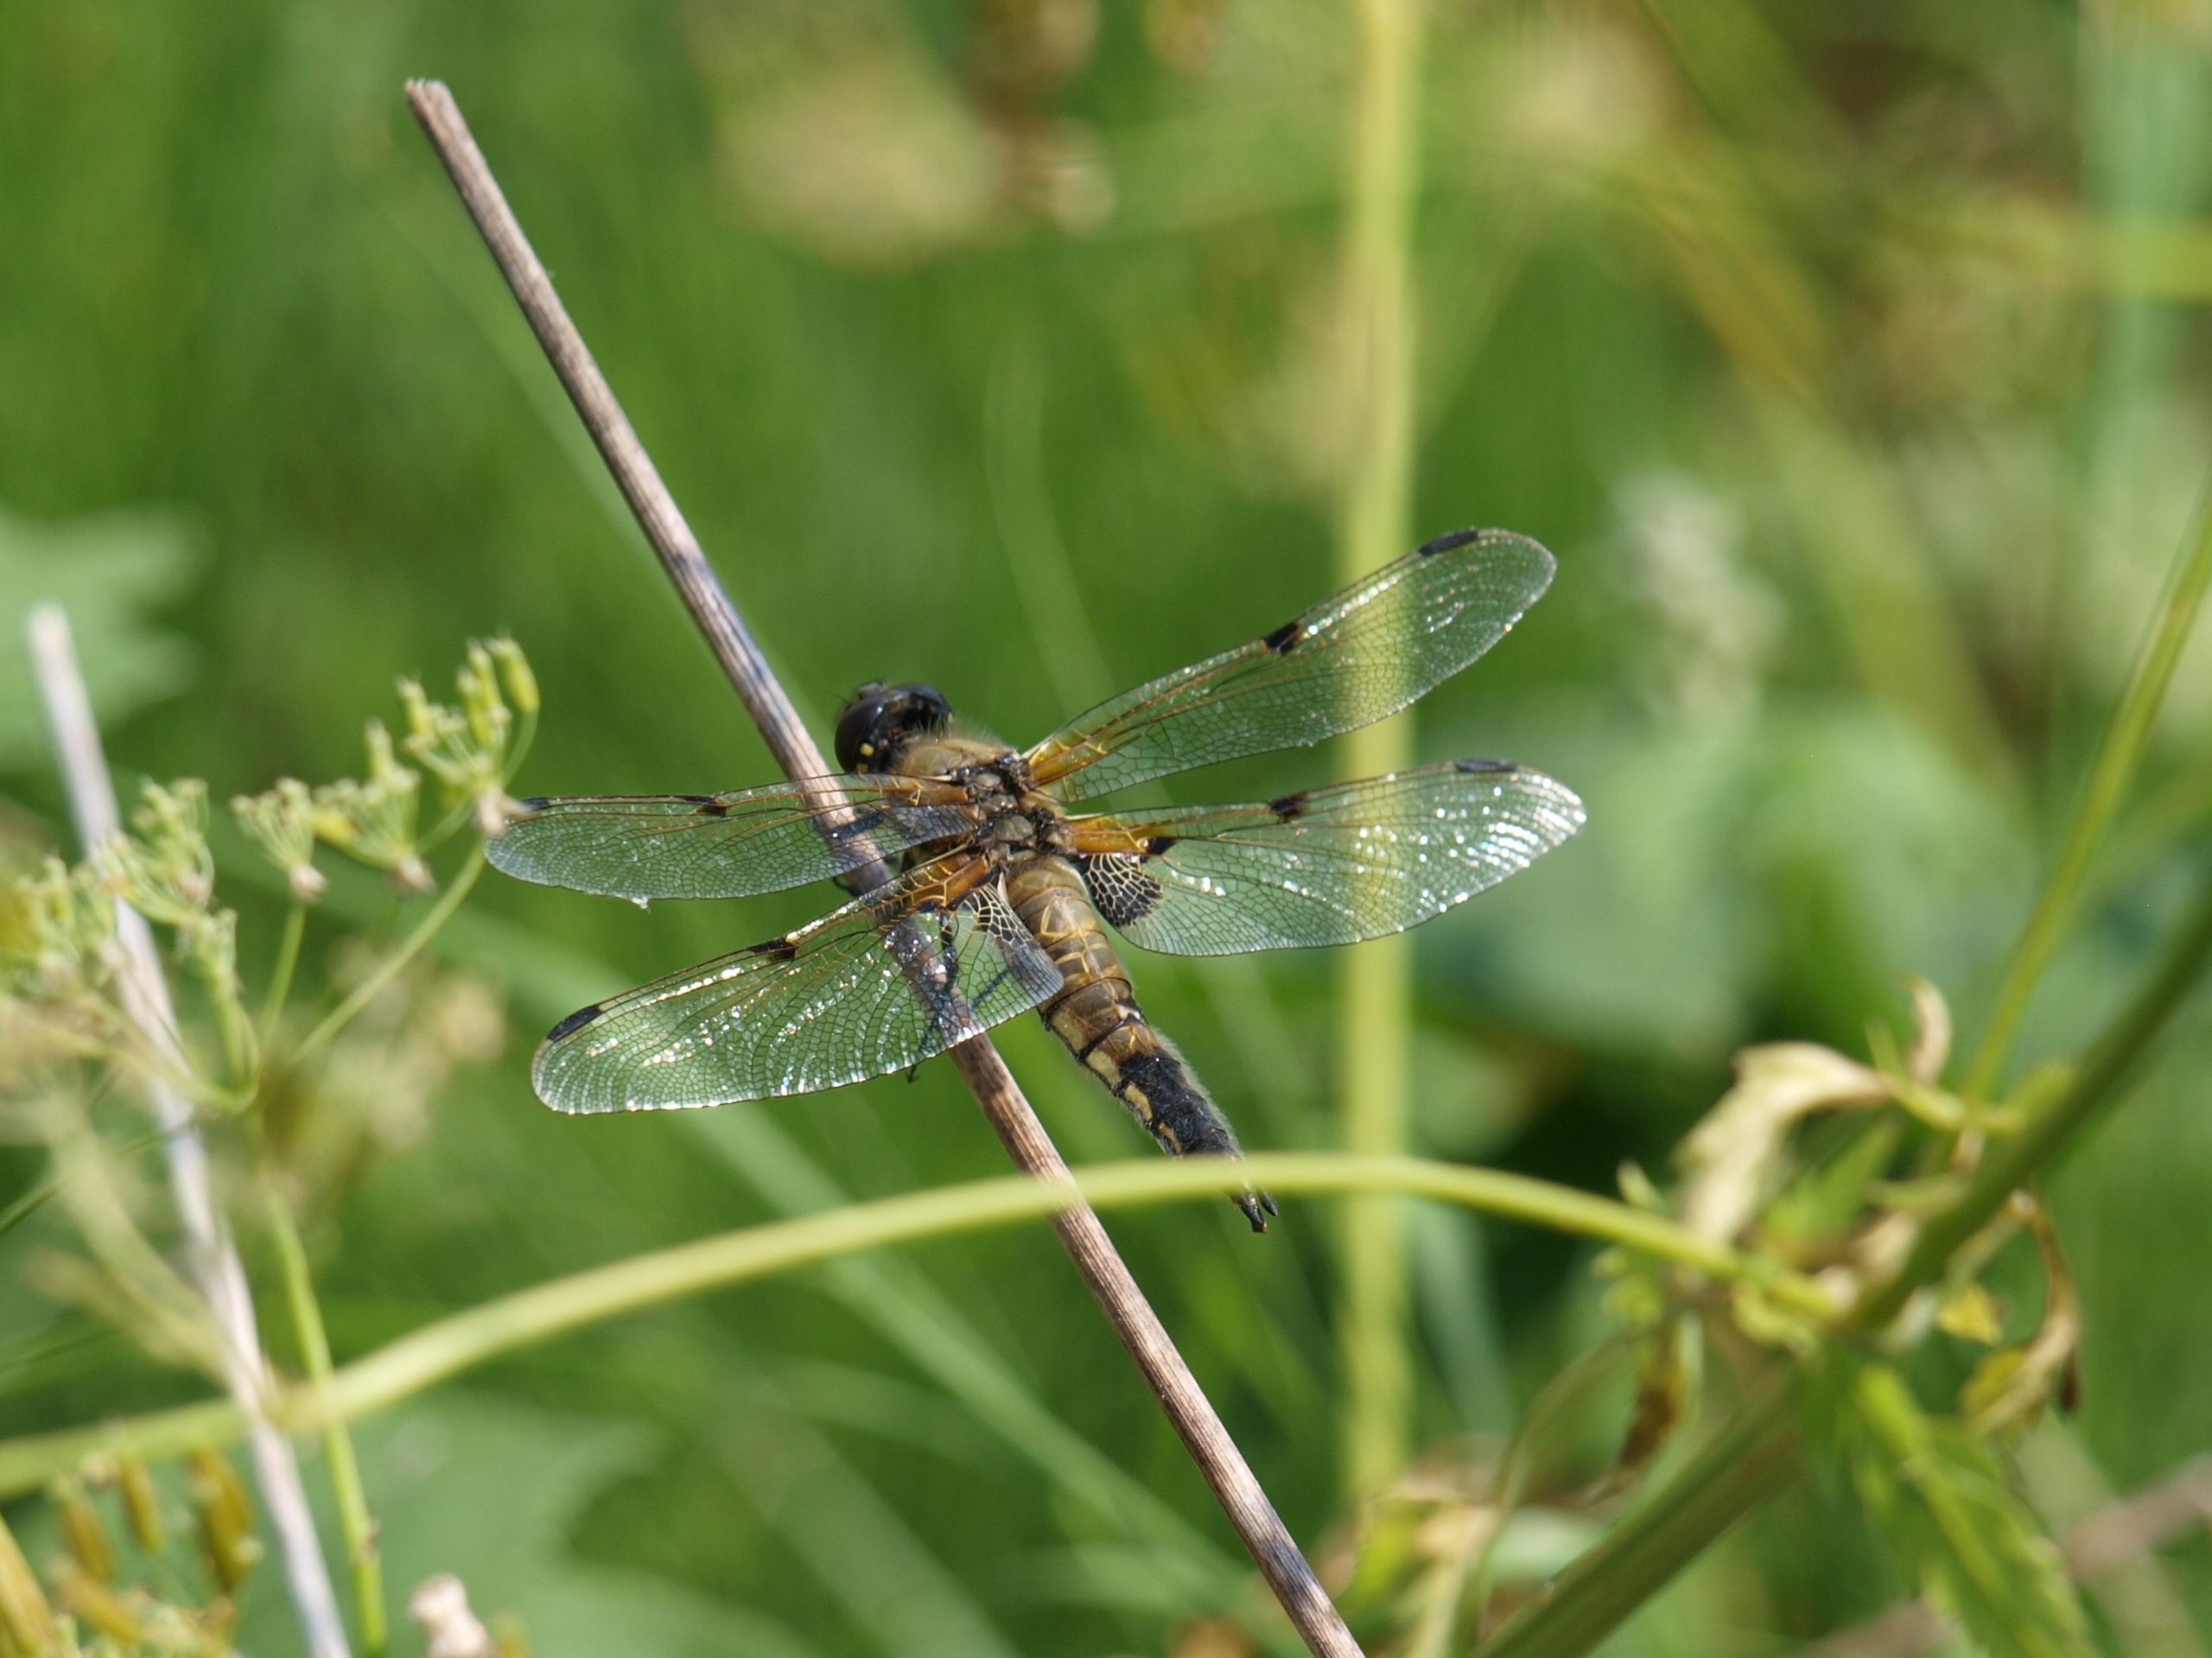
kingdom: Animalia
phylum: Arthropoda
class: Insecta
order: Odonata
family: Libellulidae
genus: Libellula
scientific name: Libellula quadrimaculata
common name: Fireplettet libel
